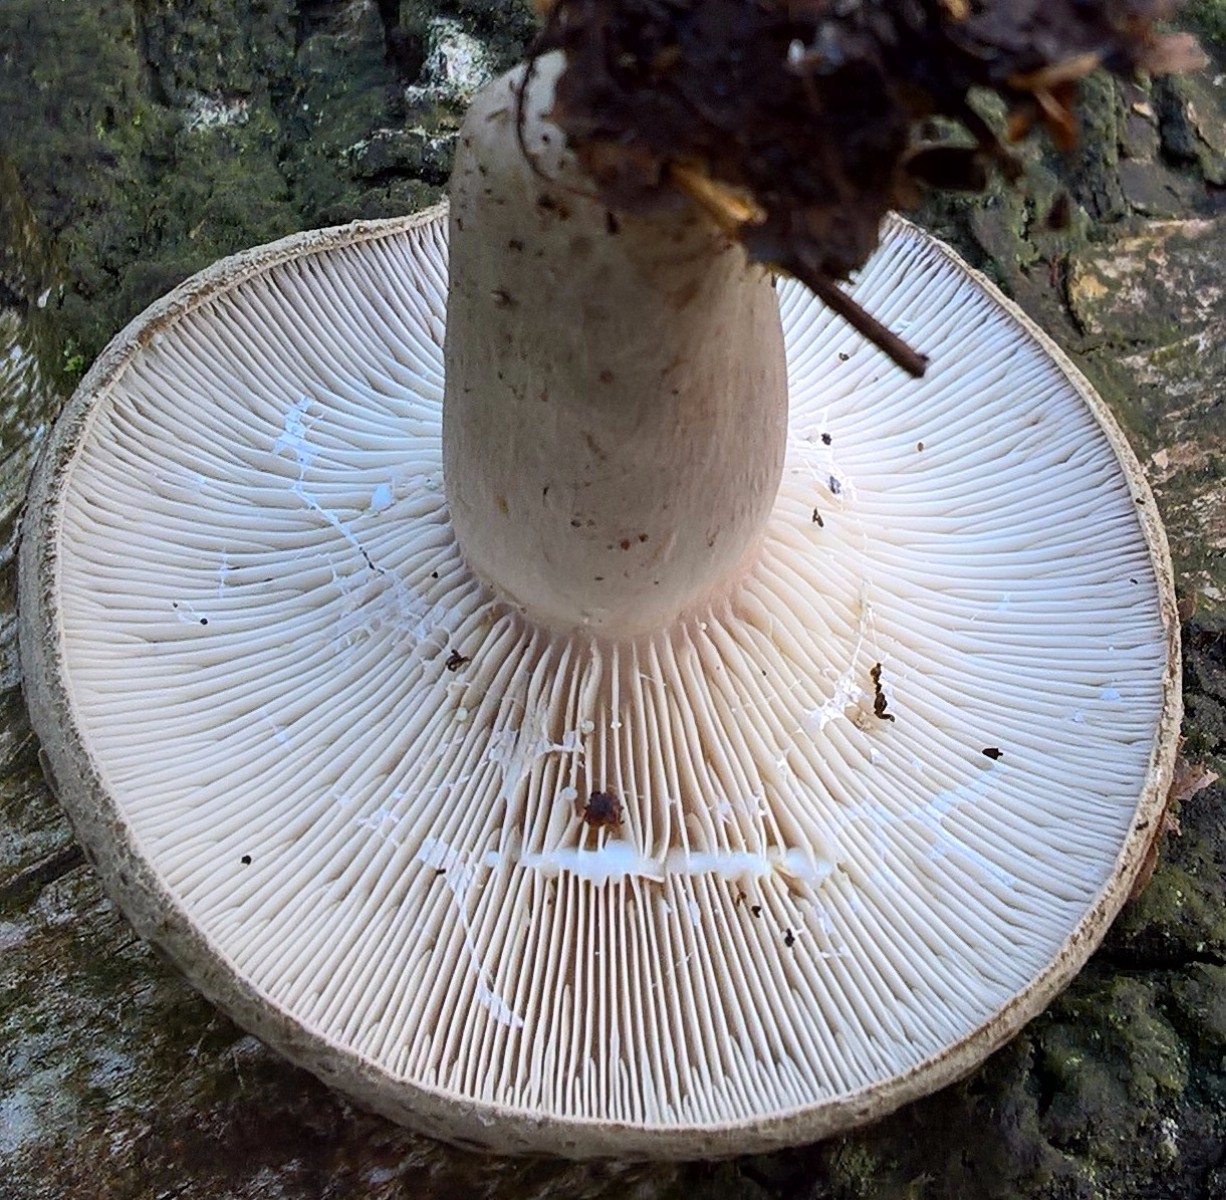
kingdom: Fungi
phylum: Basidiomycota
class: Agaricomycetes
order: Russulales
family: Russulaceae
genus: Lactarius
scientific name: Lactarius blennius
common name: dråbeplettet mælkehat
